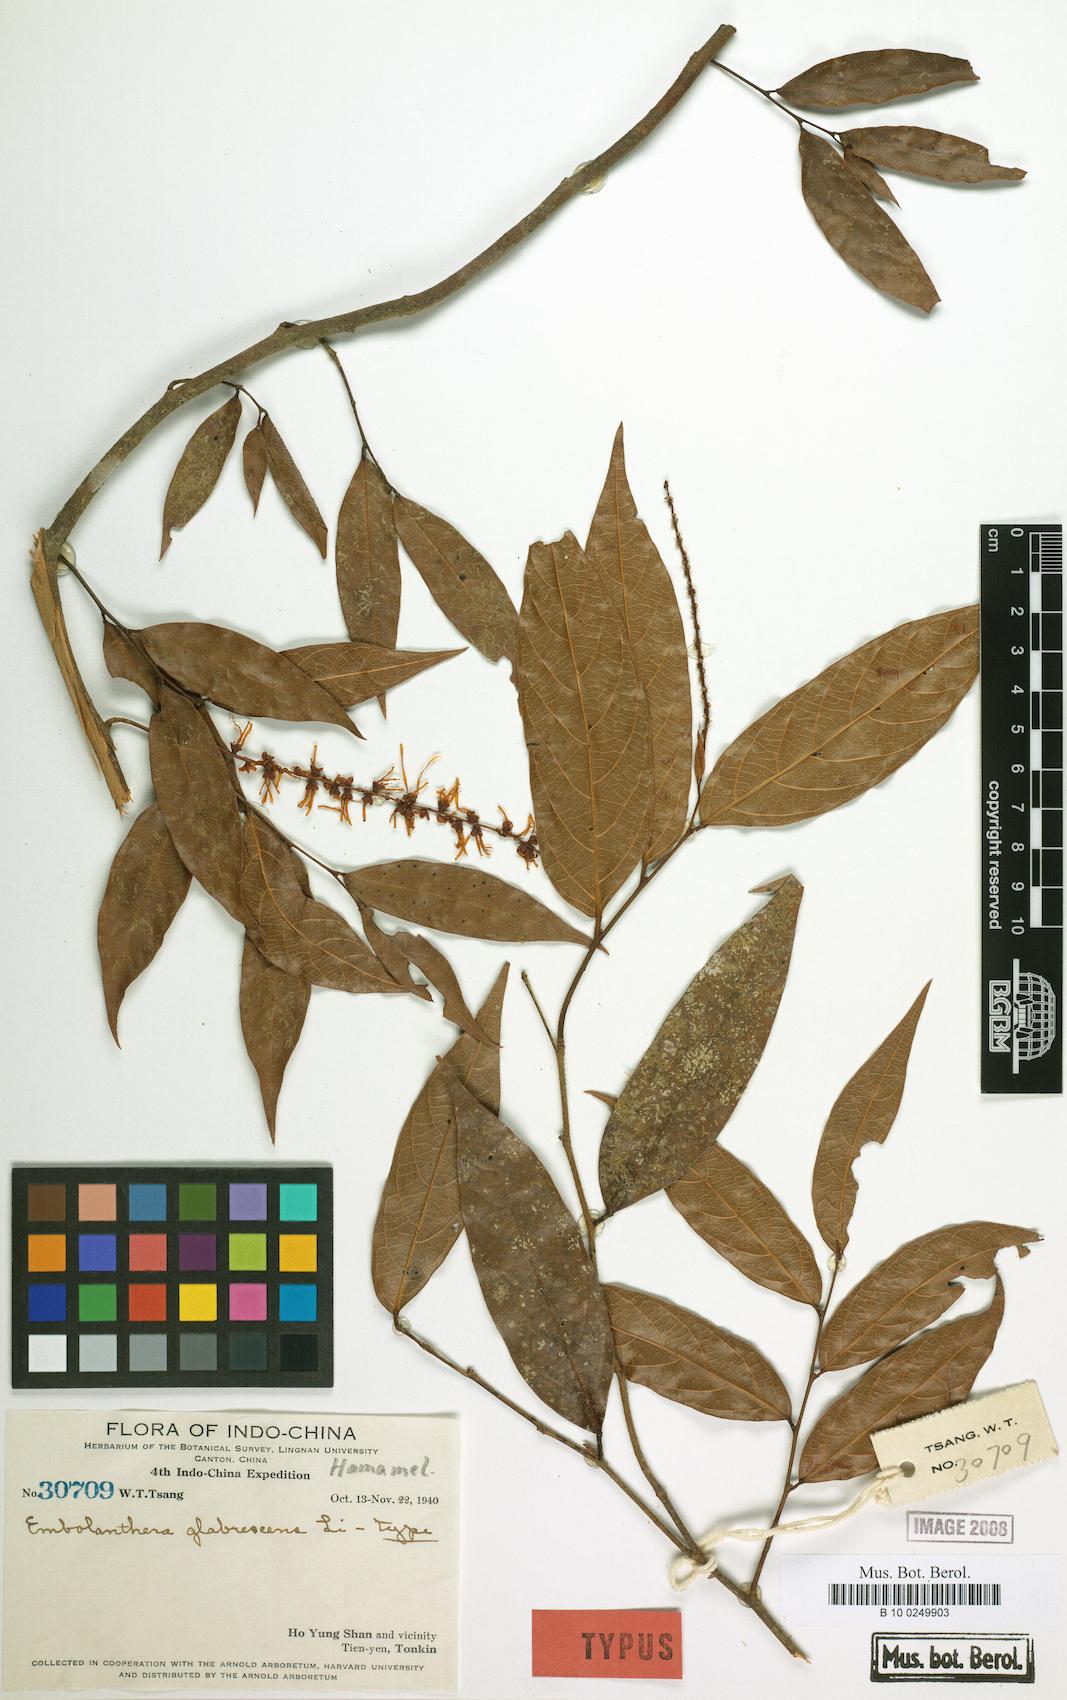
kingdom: Plantae
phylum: Tracheophyta
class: Magnoliopsida
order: Saxifragales
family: Hamamelidaceae
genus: Embolanthera
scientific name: Embolanthera glabrescens
